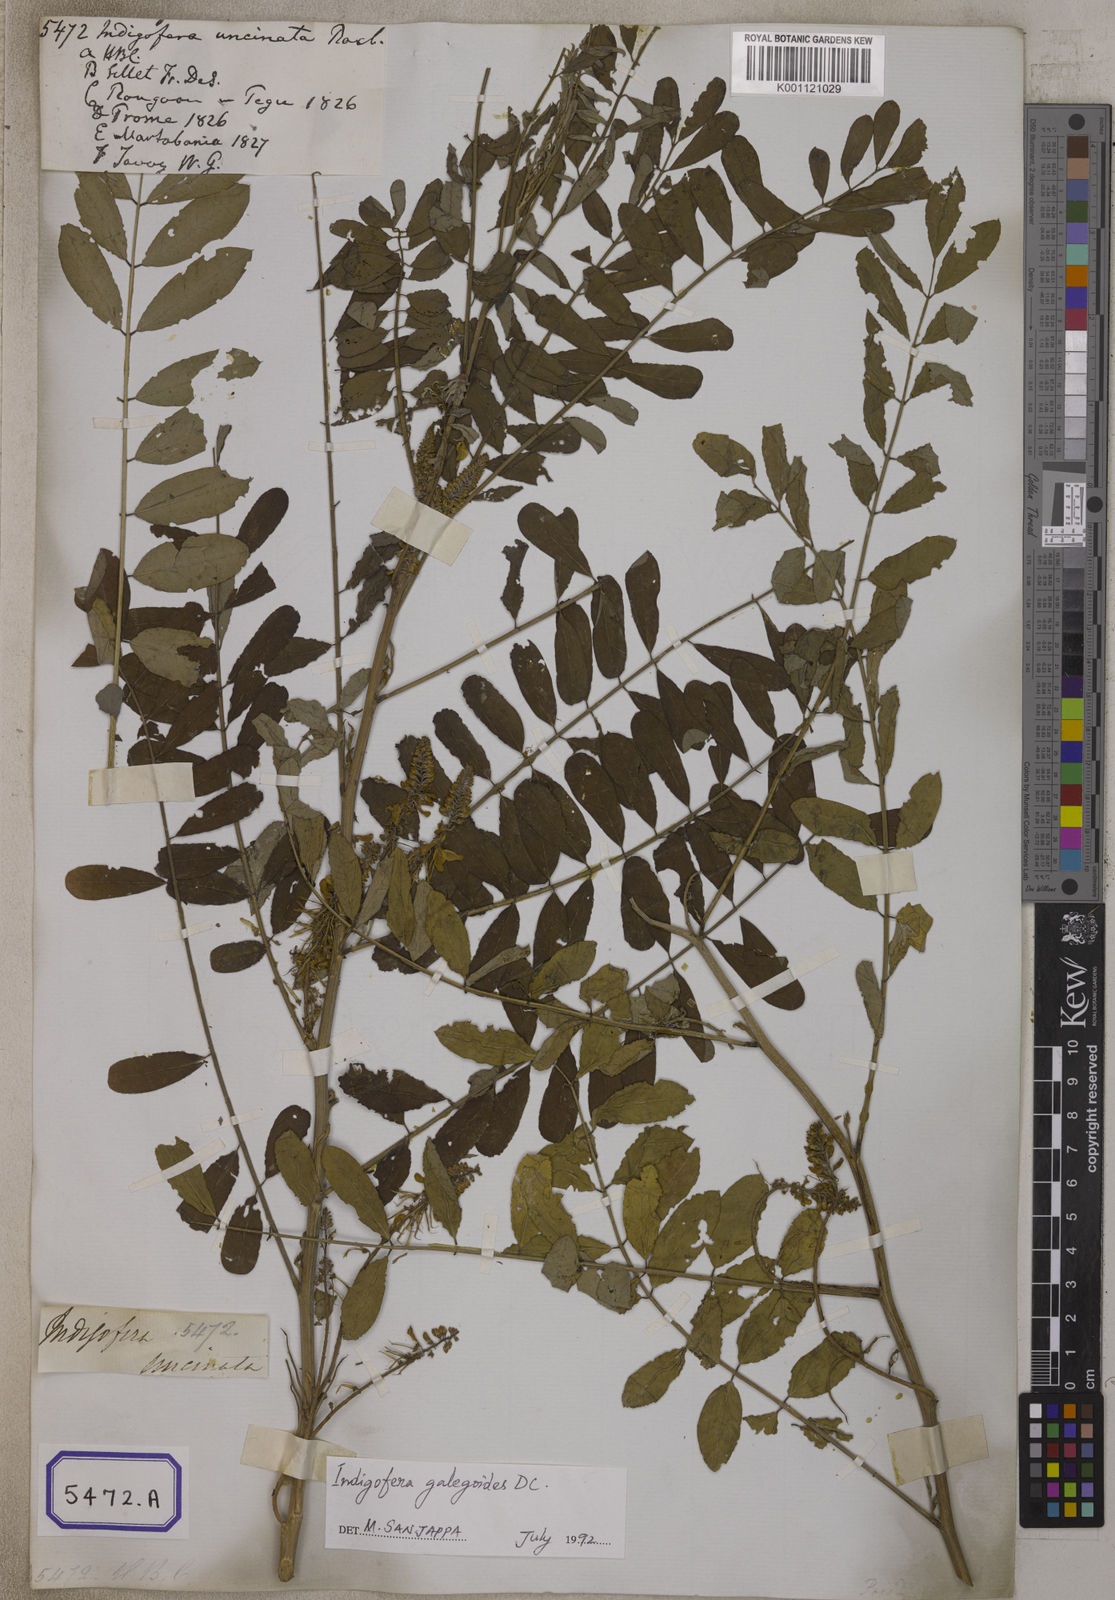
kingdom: Plantae
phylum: Tracheophyta
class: Magnoliopsida
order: Fabales
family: Fabaceae
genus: Indigofera
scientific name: Indigofera galegoides
